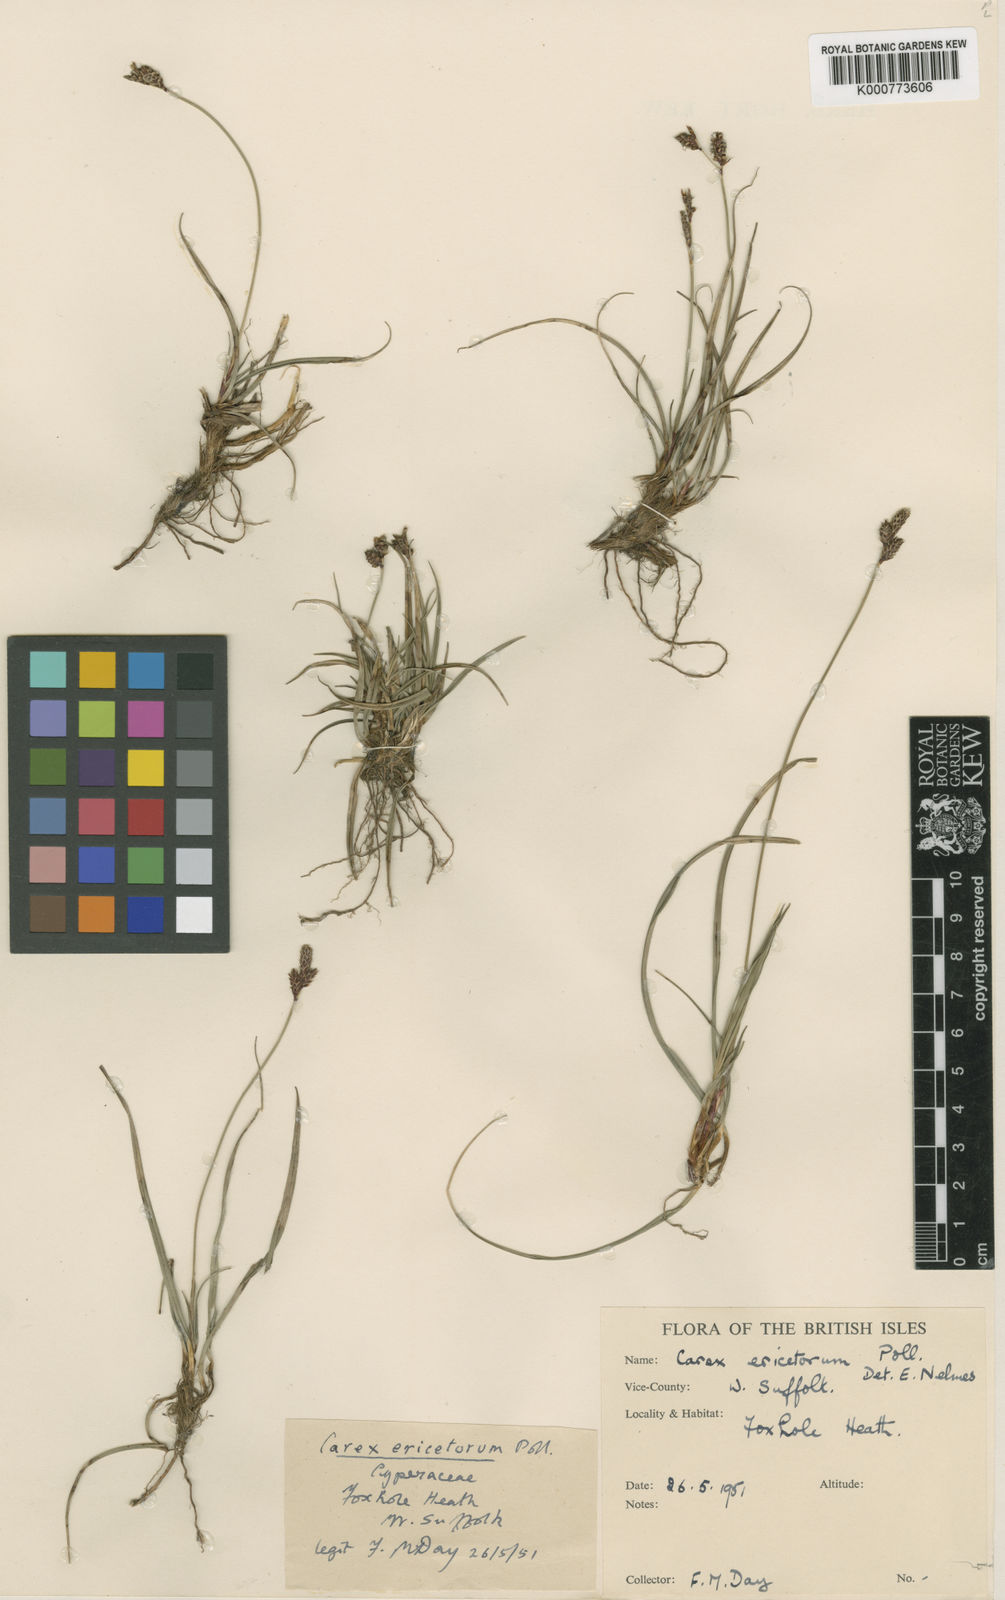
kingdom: Plantae
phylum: Tracheophyta
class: Liliopsida
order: Poales
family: Cyperaceae
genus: Carex
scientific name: Carex ericetorum
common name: Rare spring-sedge
